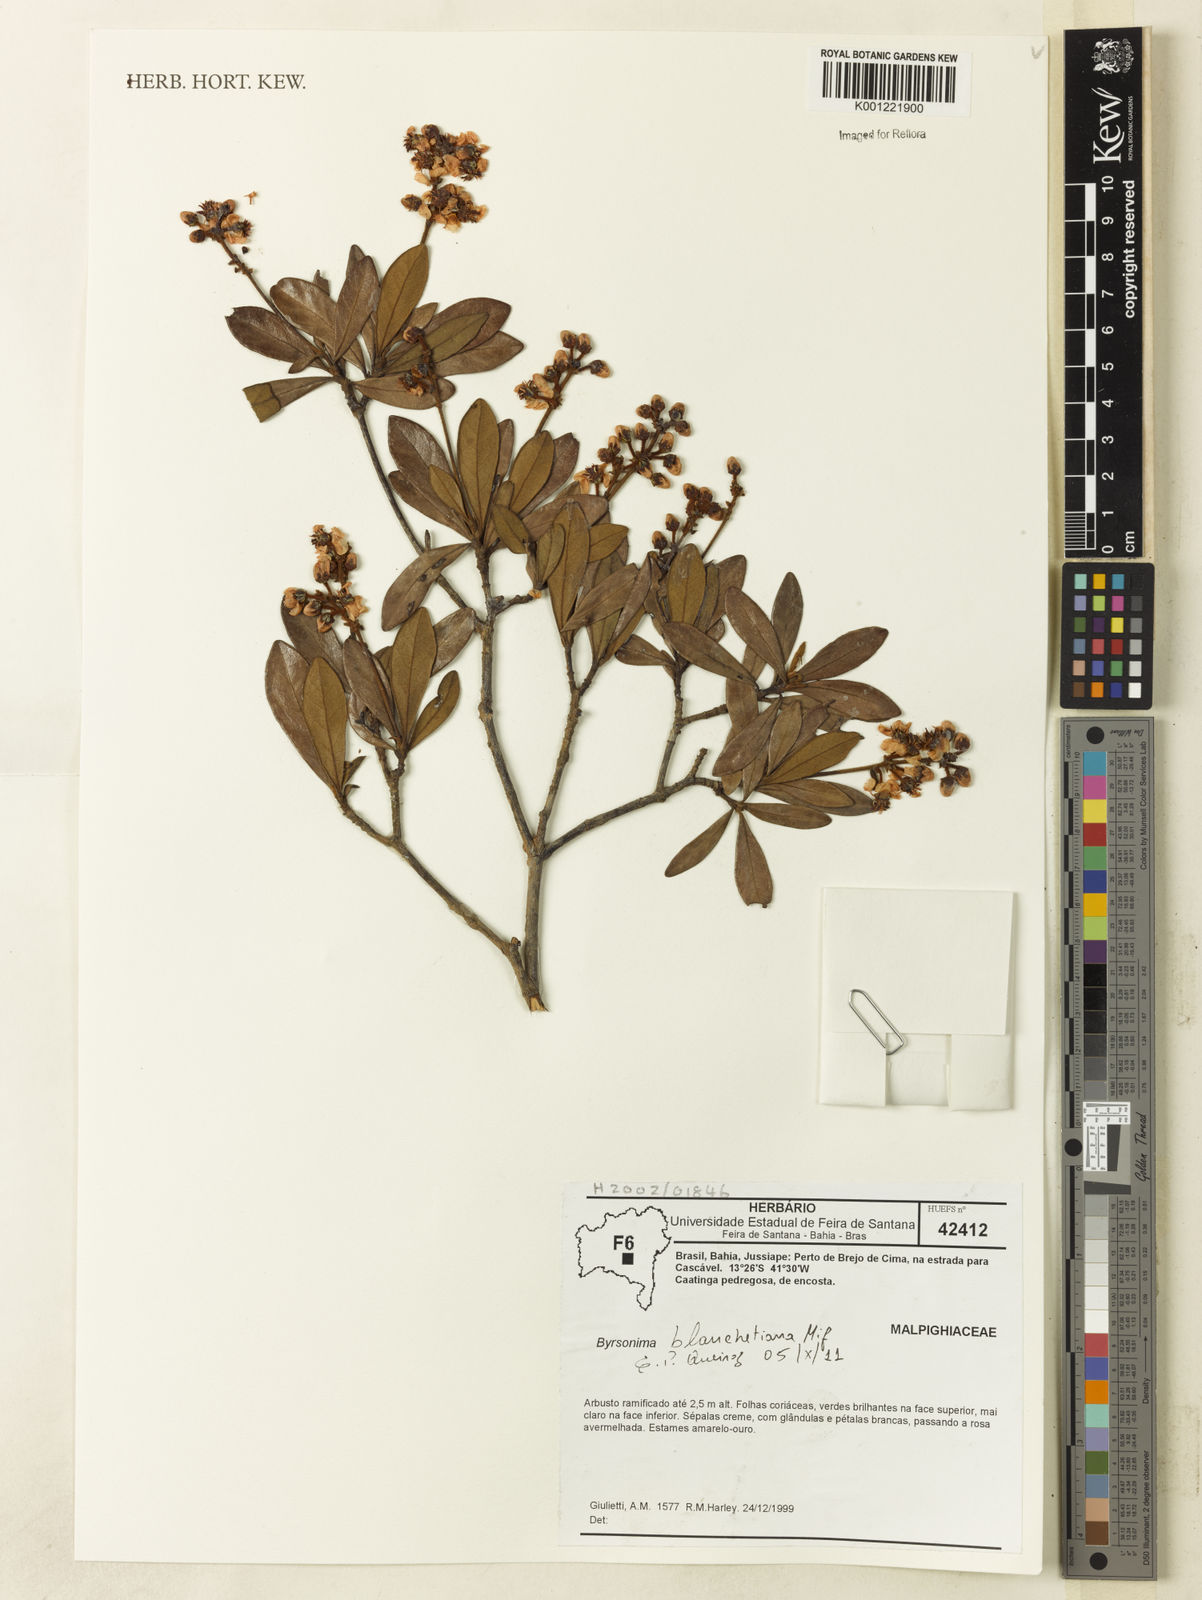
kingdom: Plantae
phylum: Tracheophyta
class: Magnoliopsida
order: Malpighiales
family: Malpighiaceae
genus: Byrsonima
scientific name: Byrsonima bicorniculata
